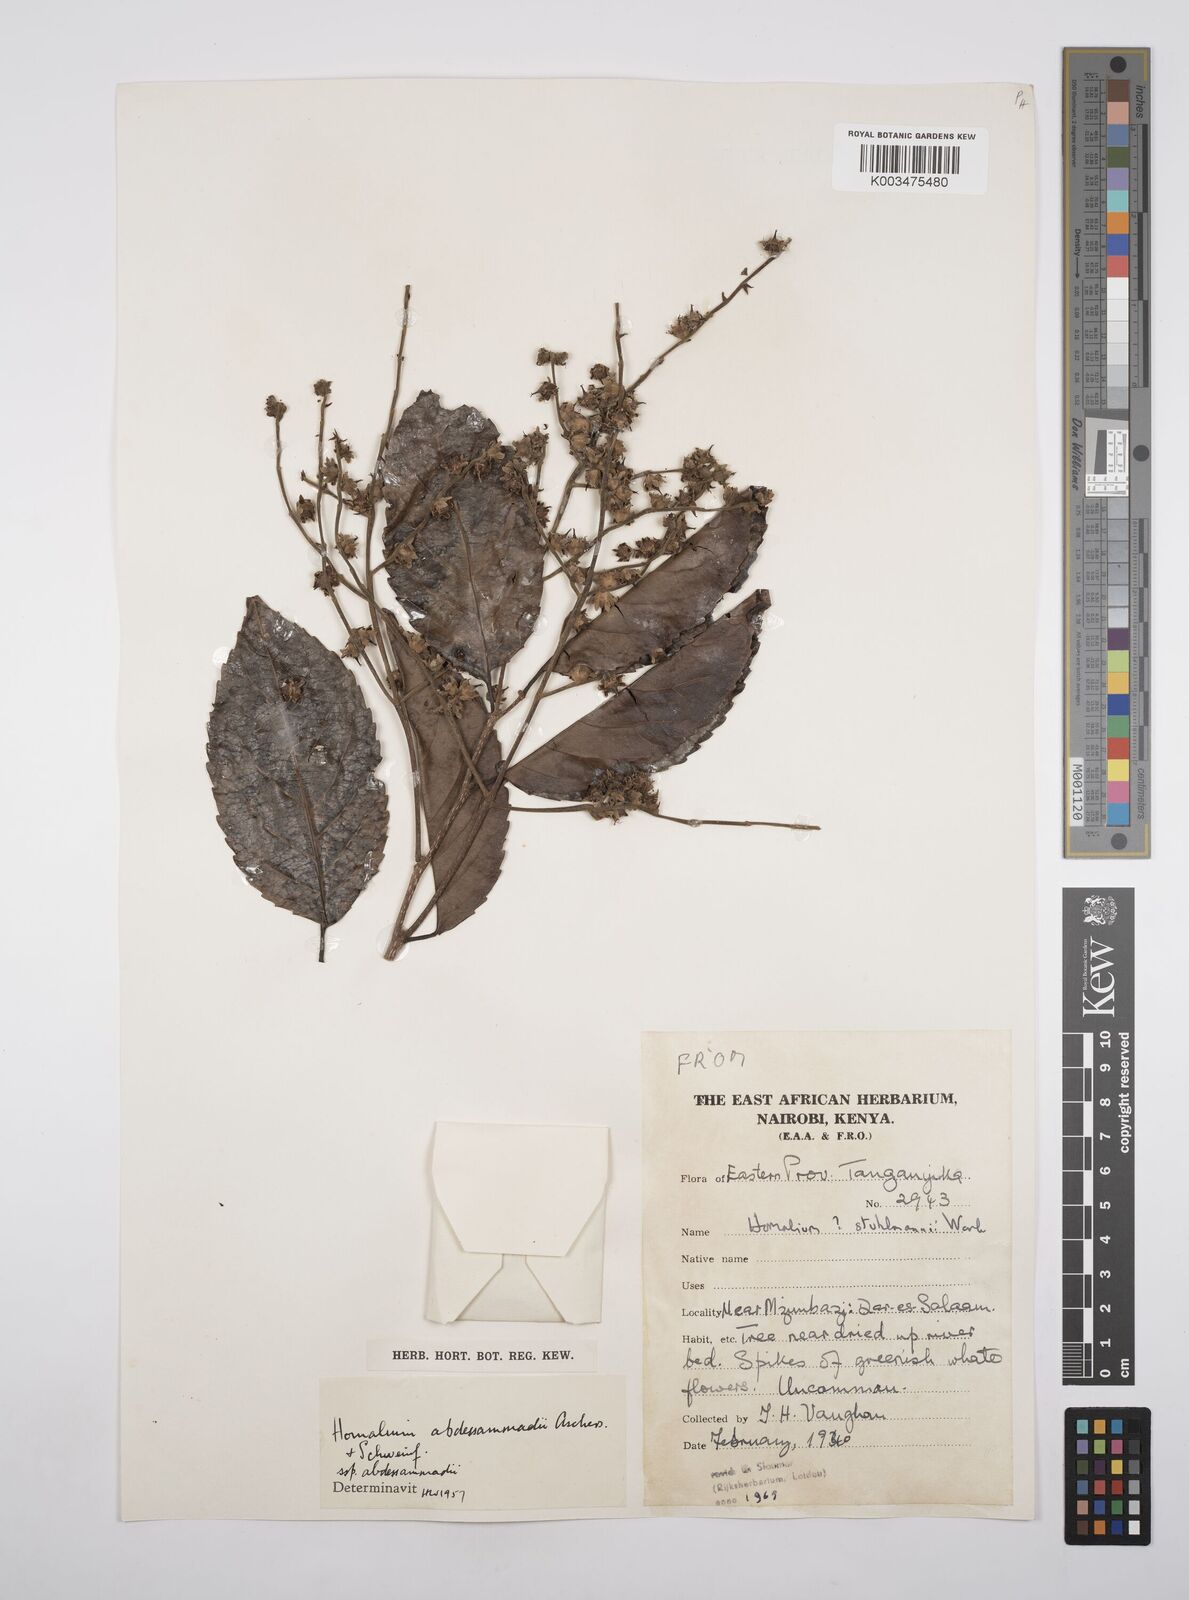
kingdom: Plantae
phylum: Tracheophyta
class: Magnoliopsida
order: Malpighiales
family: Salicaceae
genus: Homalium
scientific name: Homalium abdessammadii
